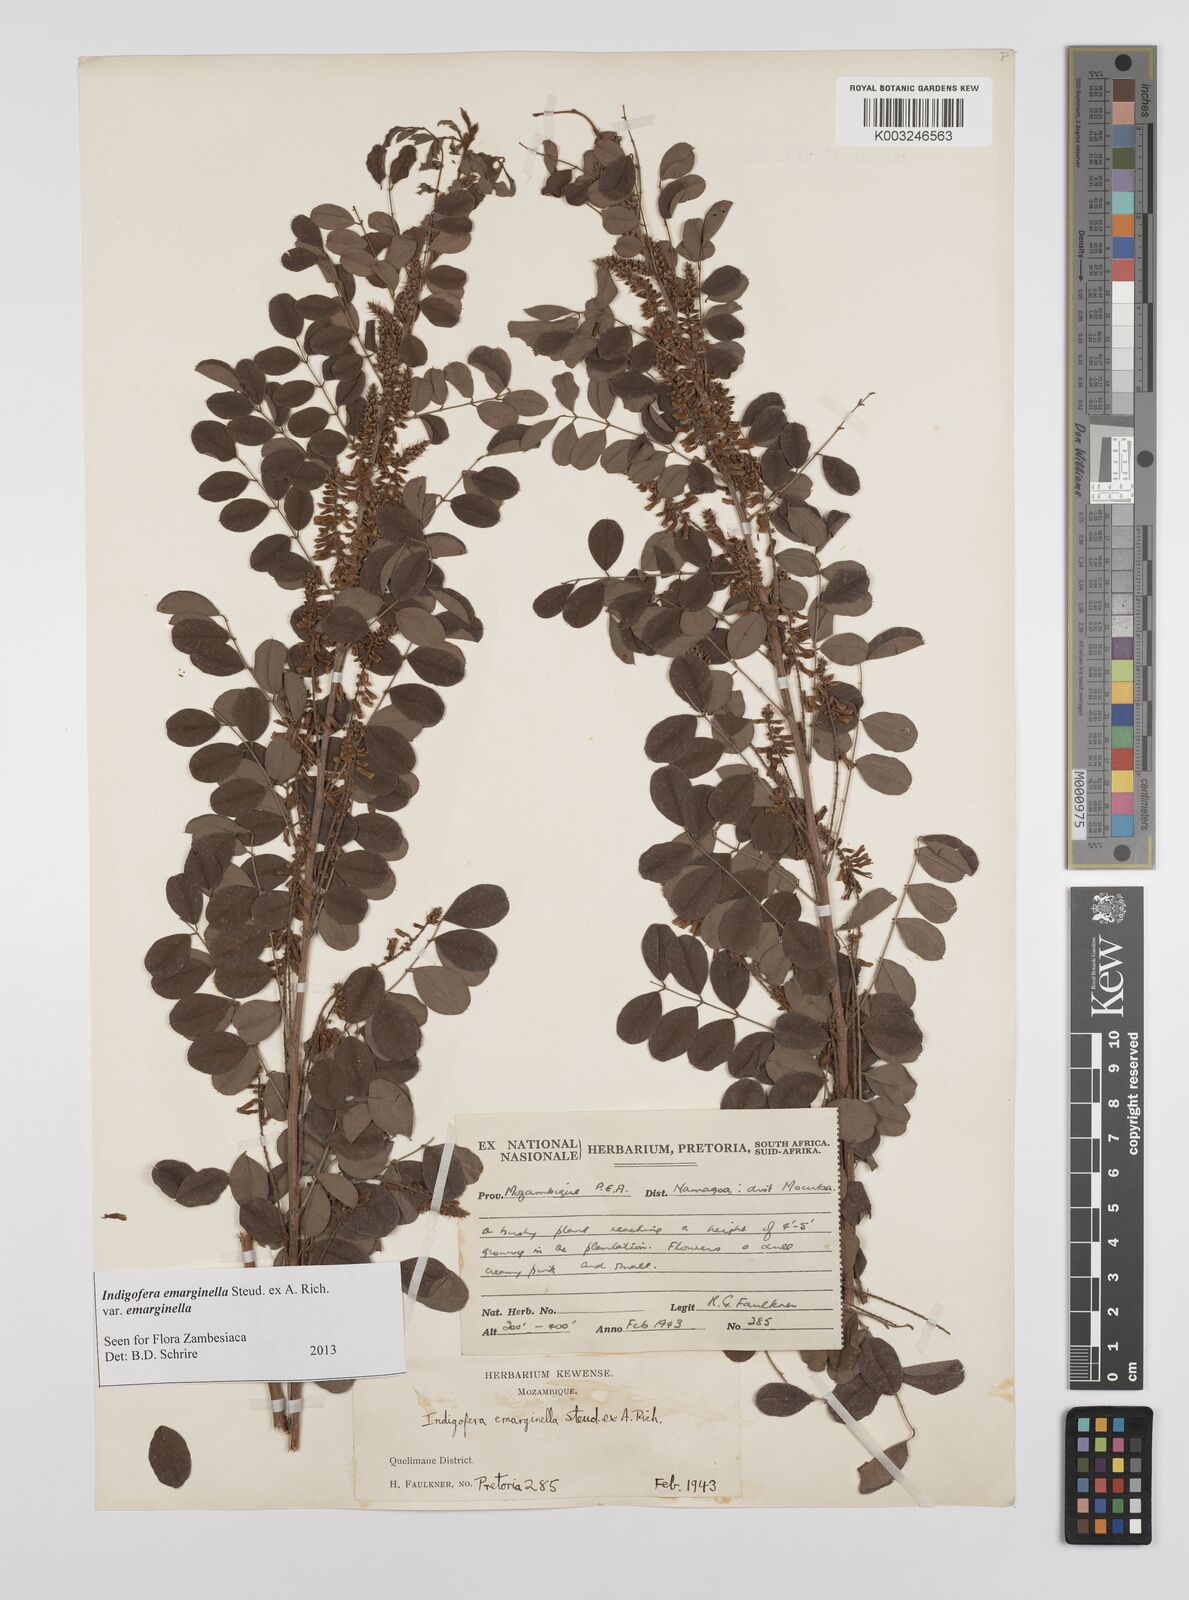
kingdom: Plantae
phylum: Tracheophyta
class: Magnoliopsida
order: Fabales
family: Fabaceae
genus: Indigofera
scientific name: Indigofera emarginella
